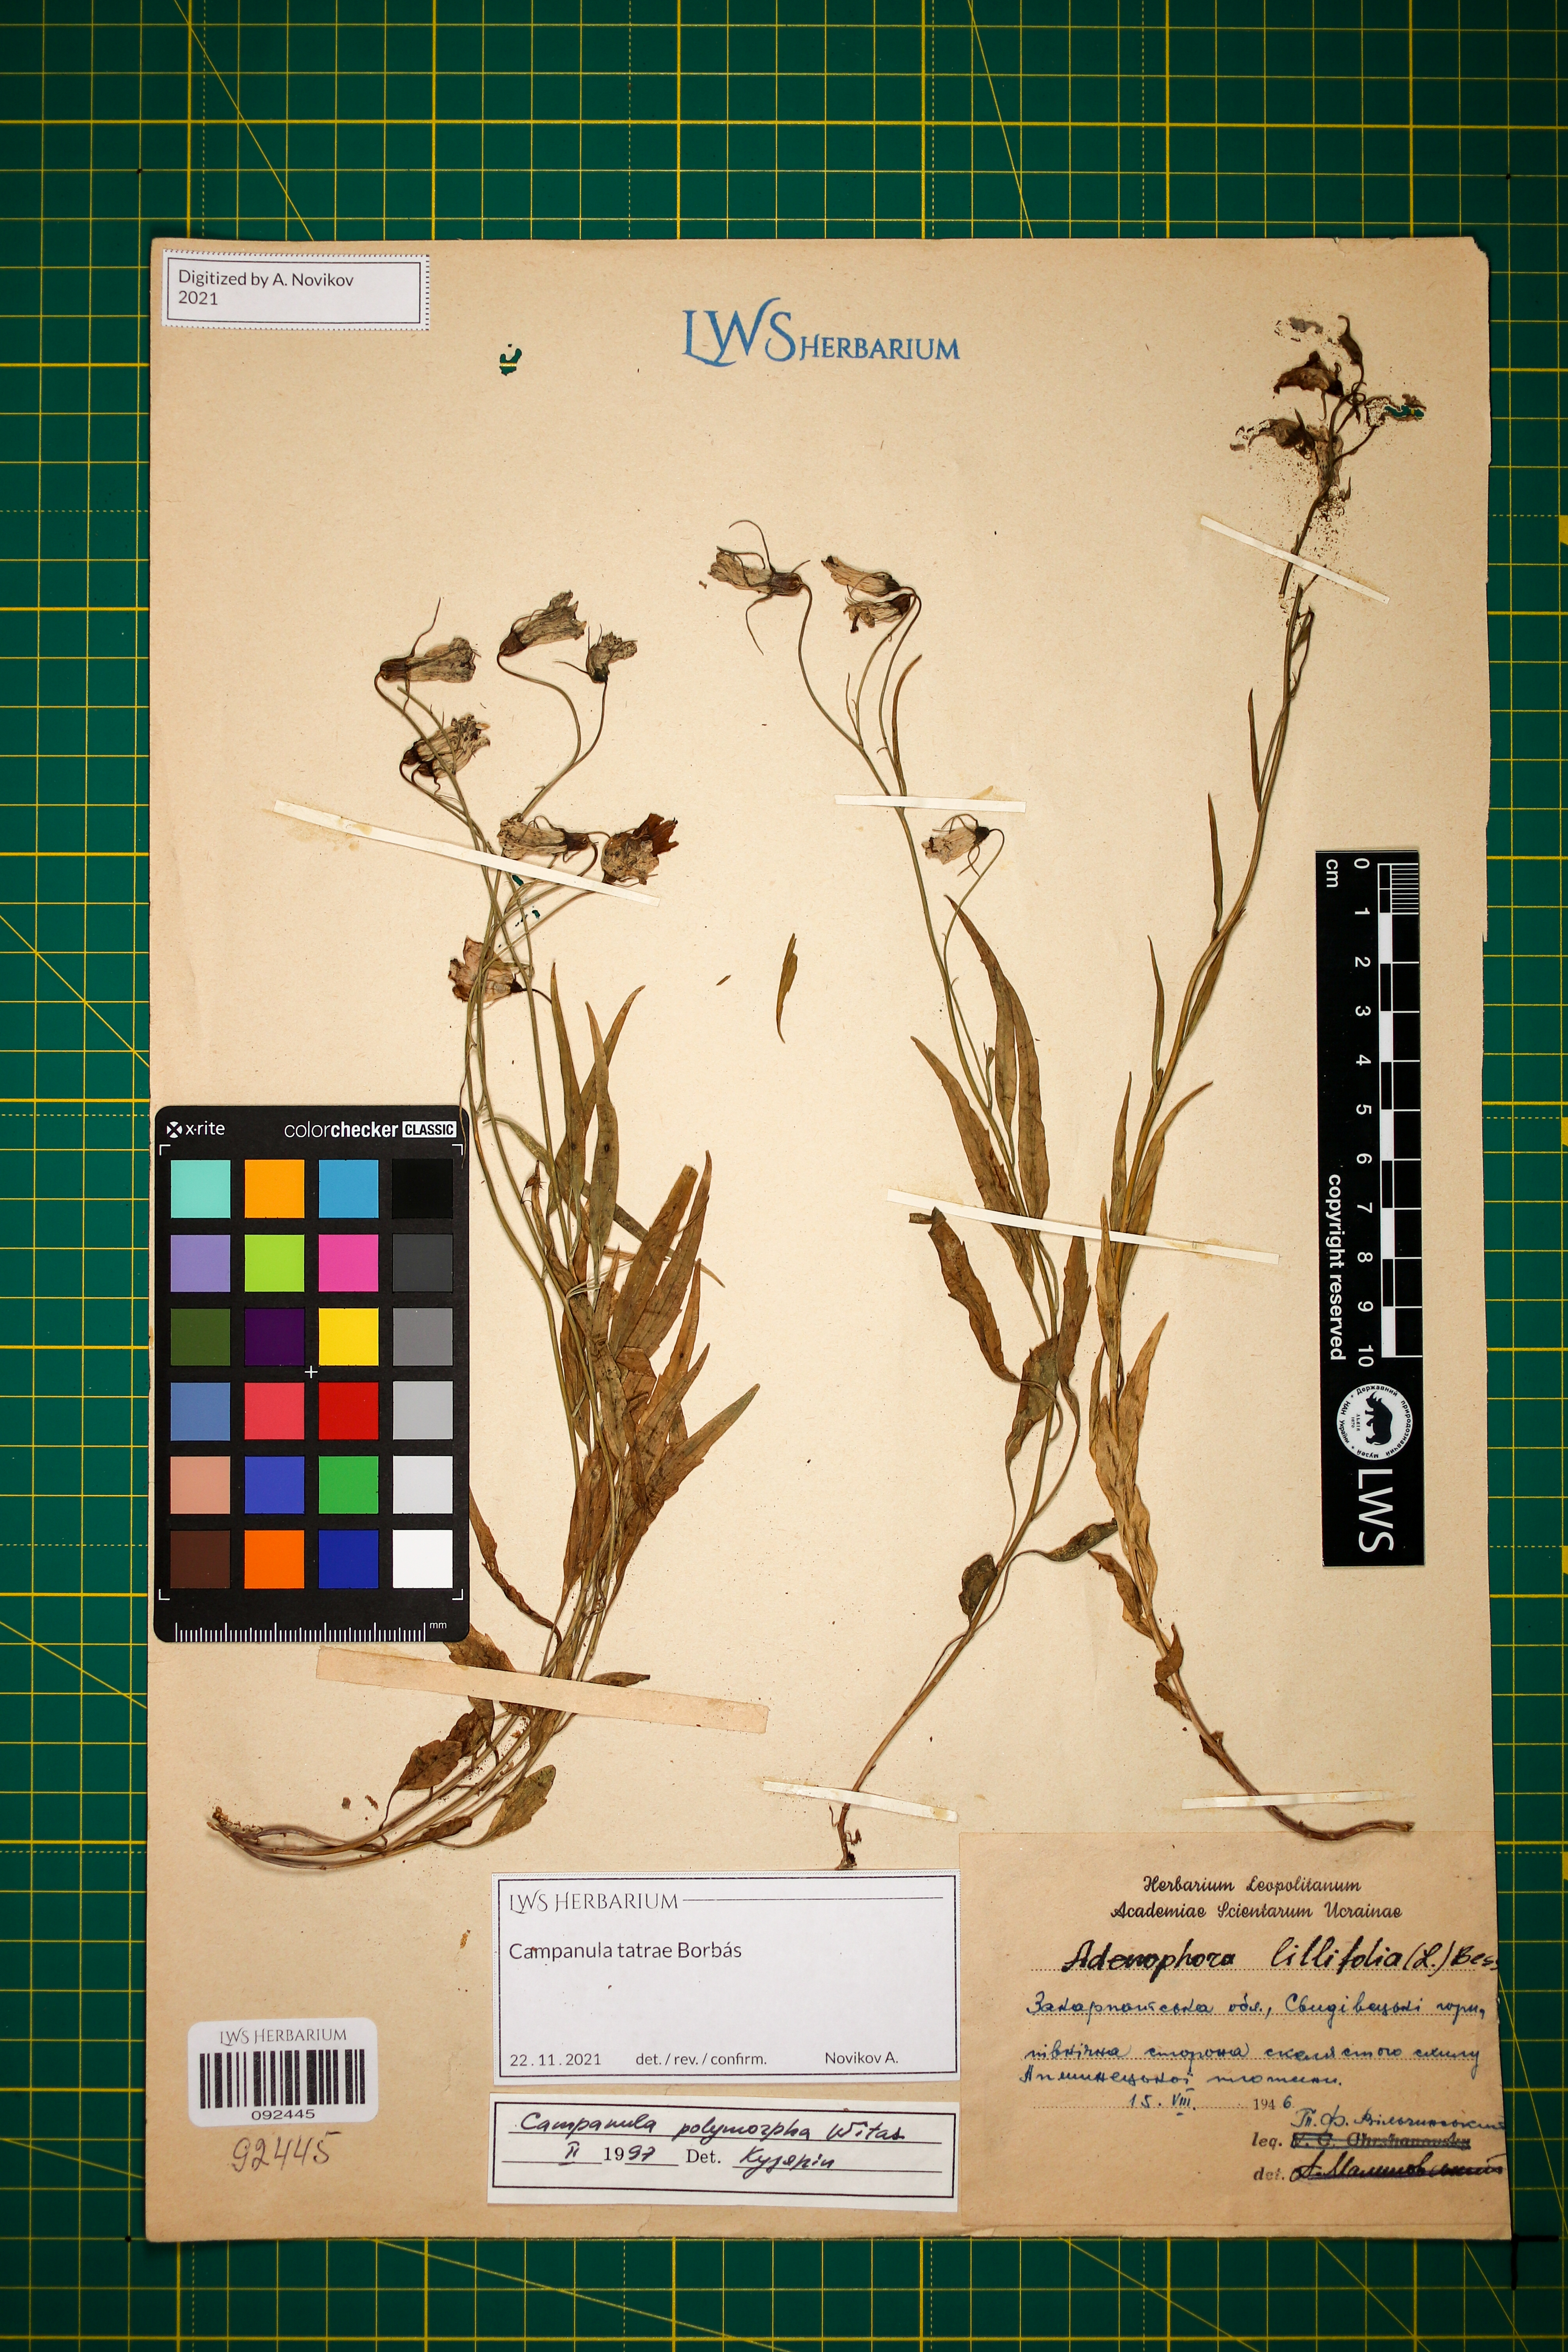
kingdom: Plantae
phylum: Tracheophyta
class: Magnoliopsida
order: Asterales
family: Campanulaceae
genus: Campanula
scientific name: Campanula tatrae
